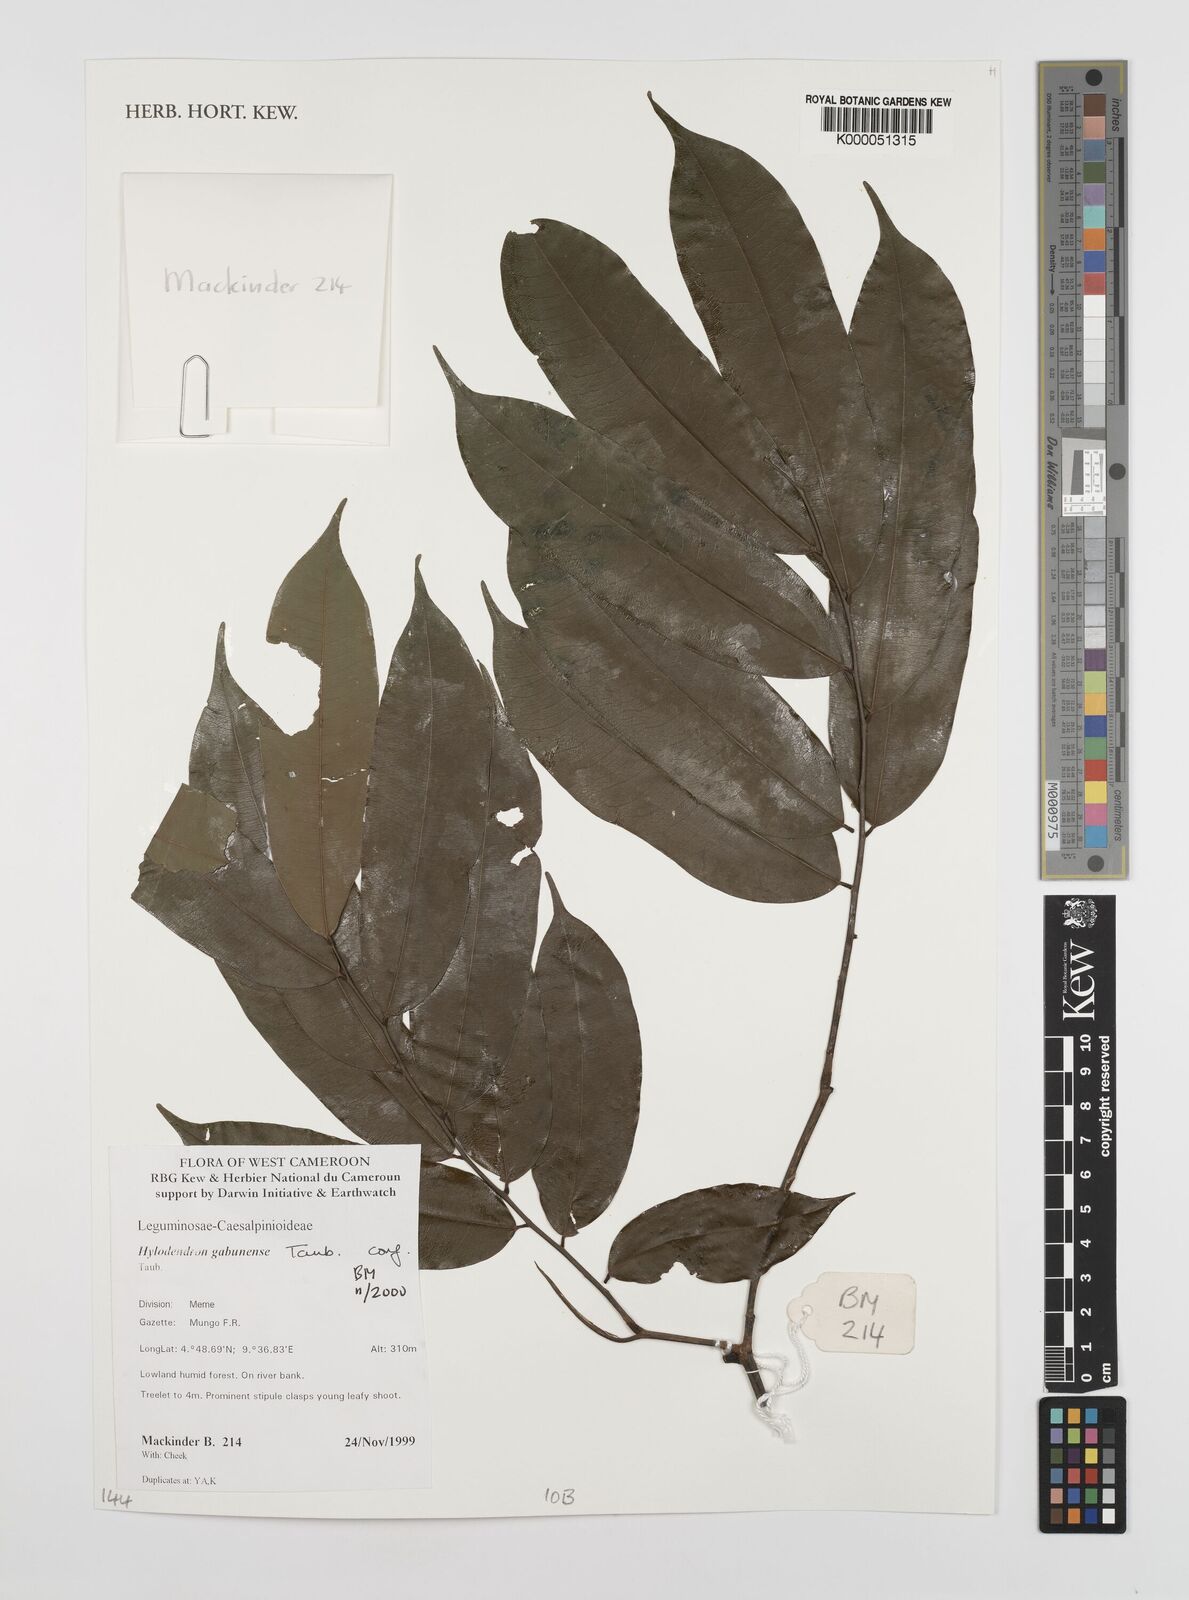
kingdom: Plantae
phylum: Tracheophyta
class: Magnoliopsida
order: Fabales
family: Fabaceae
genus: Hylodendron
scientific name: Hylodendron gabunense
